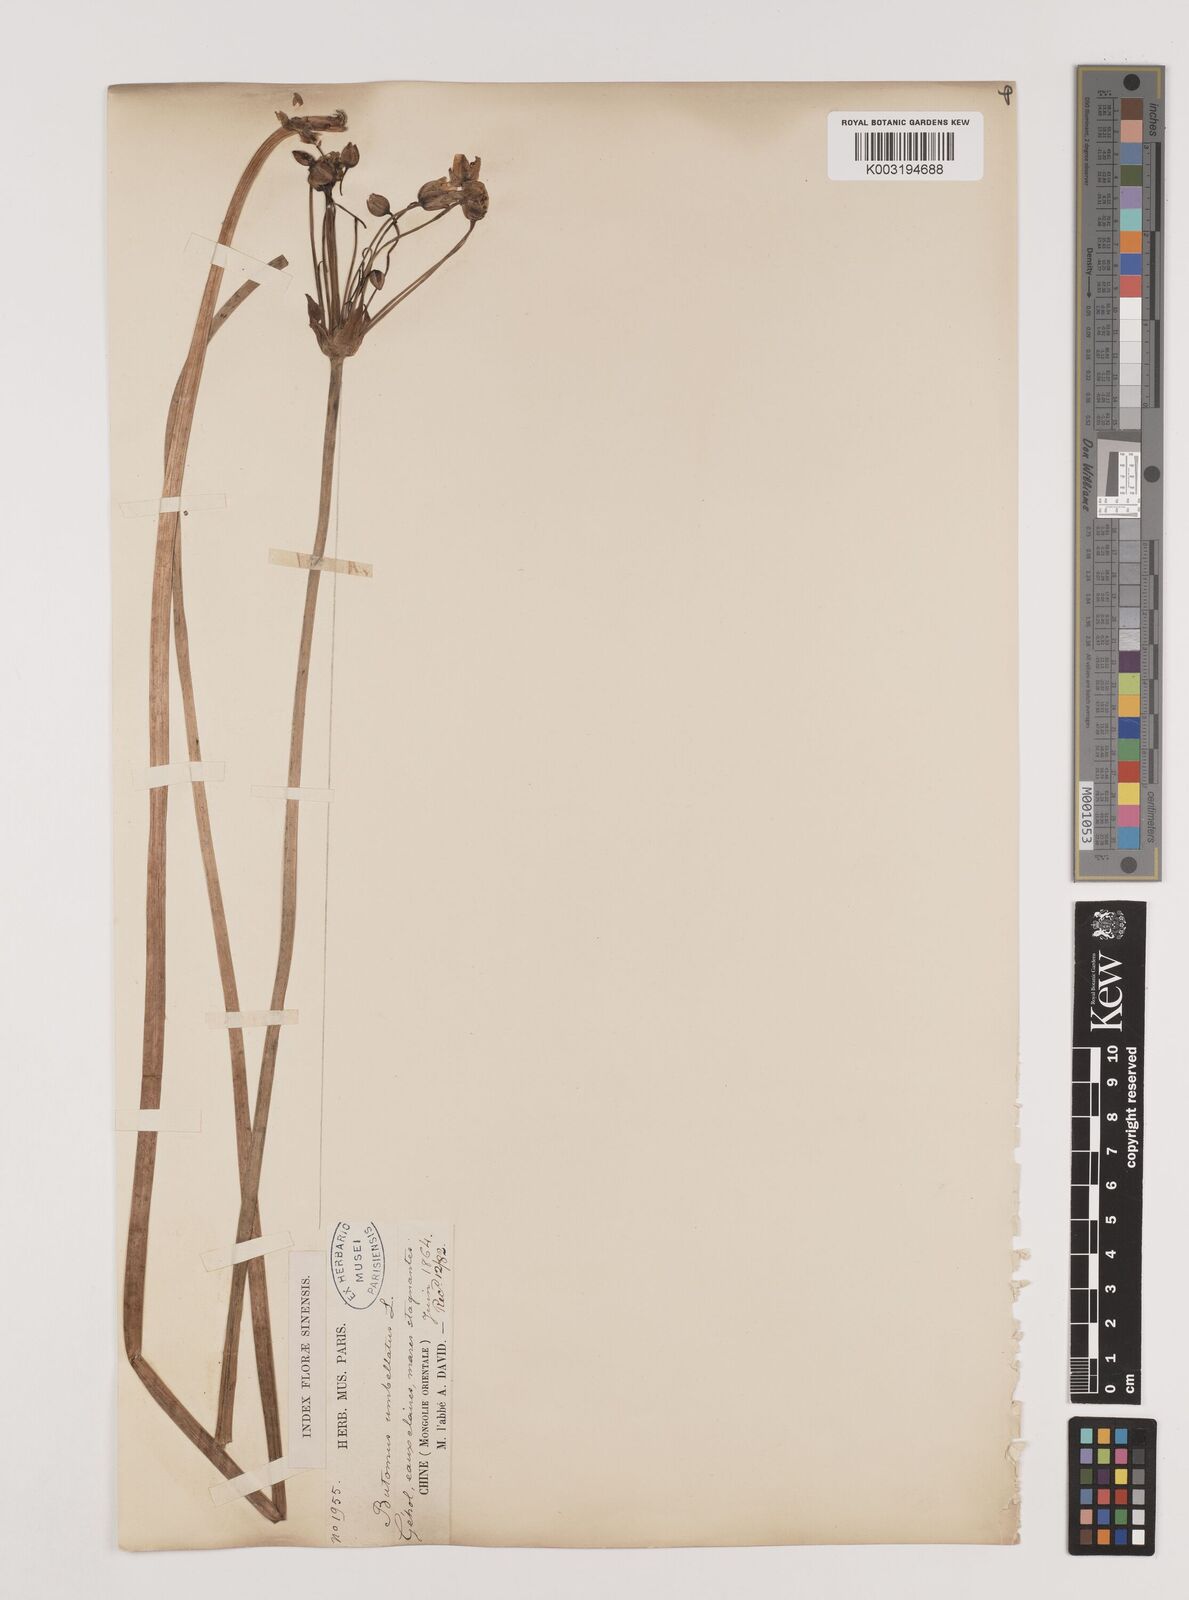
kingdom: Plantae
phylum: Tracheophyta
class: Liliopsida
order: Alismatales
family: Butomaceae
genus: Butomus
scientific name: Butomus umbellatus
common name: Flowering-rush
